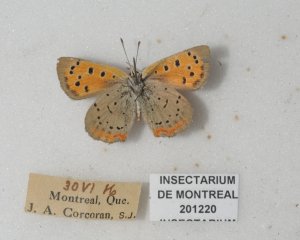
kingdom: Animalia
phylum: Arthropoda
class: Insecta
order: Lepidoptera
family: Lycaenidae
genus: Lycaena
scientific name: Lycaena phlaeas
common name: American Copper
